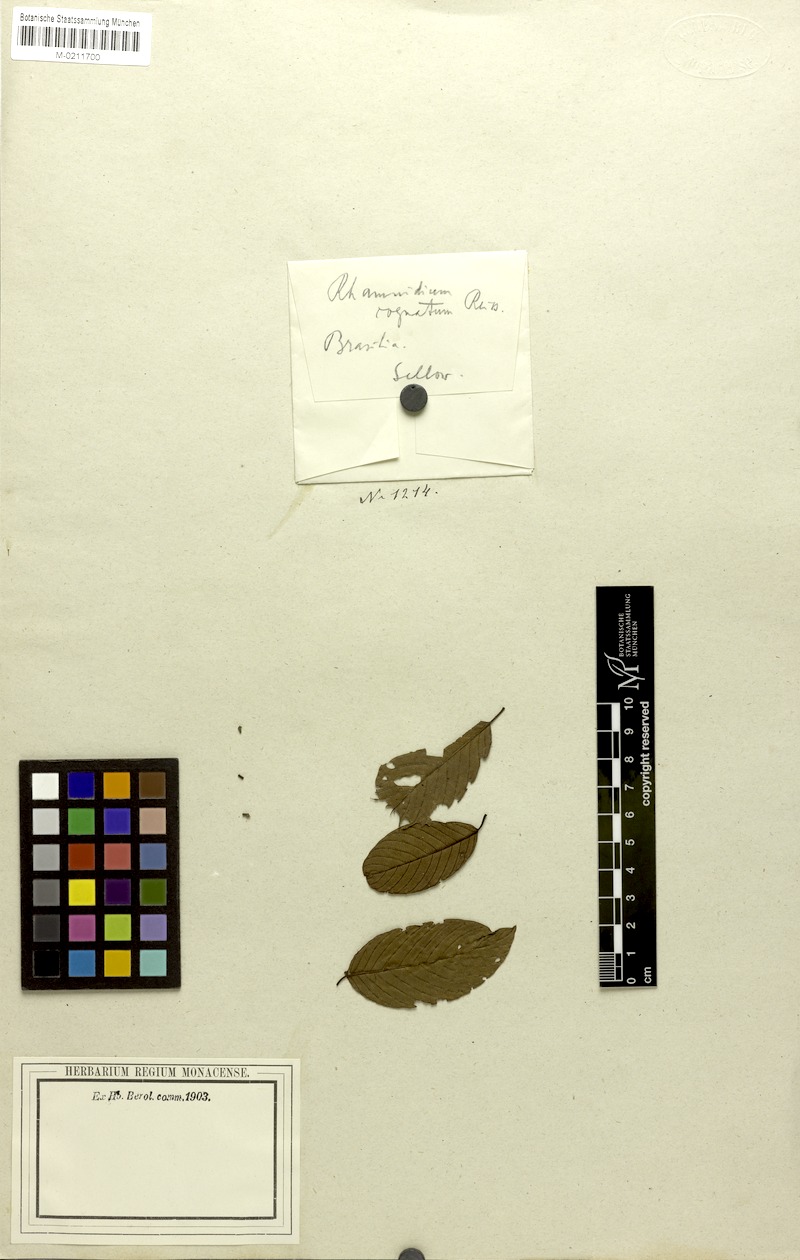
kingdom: Plantae
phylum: Tracheophyta
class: Magnoliopsida
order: Rosales
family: Rhamnaceae
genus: Rhamnidium
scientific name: Rhamnidium elaeocarpum
